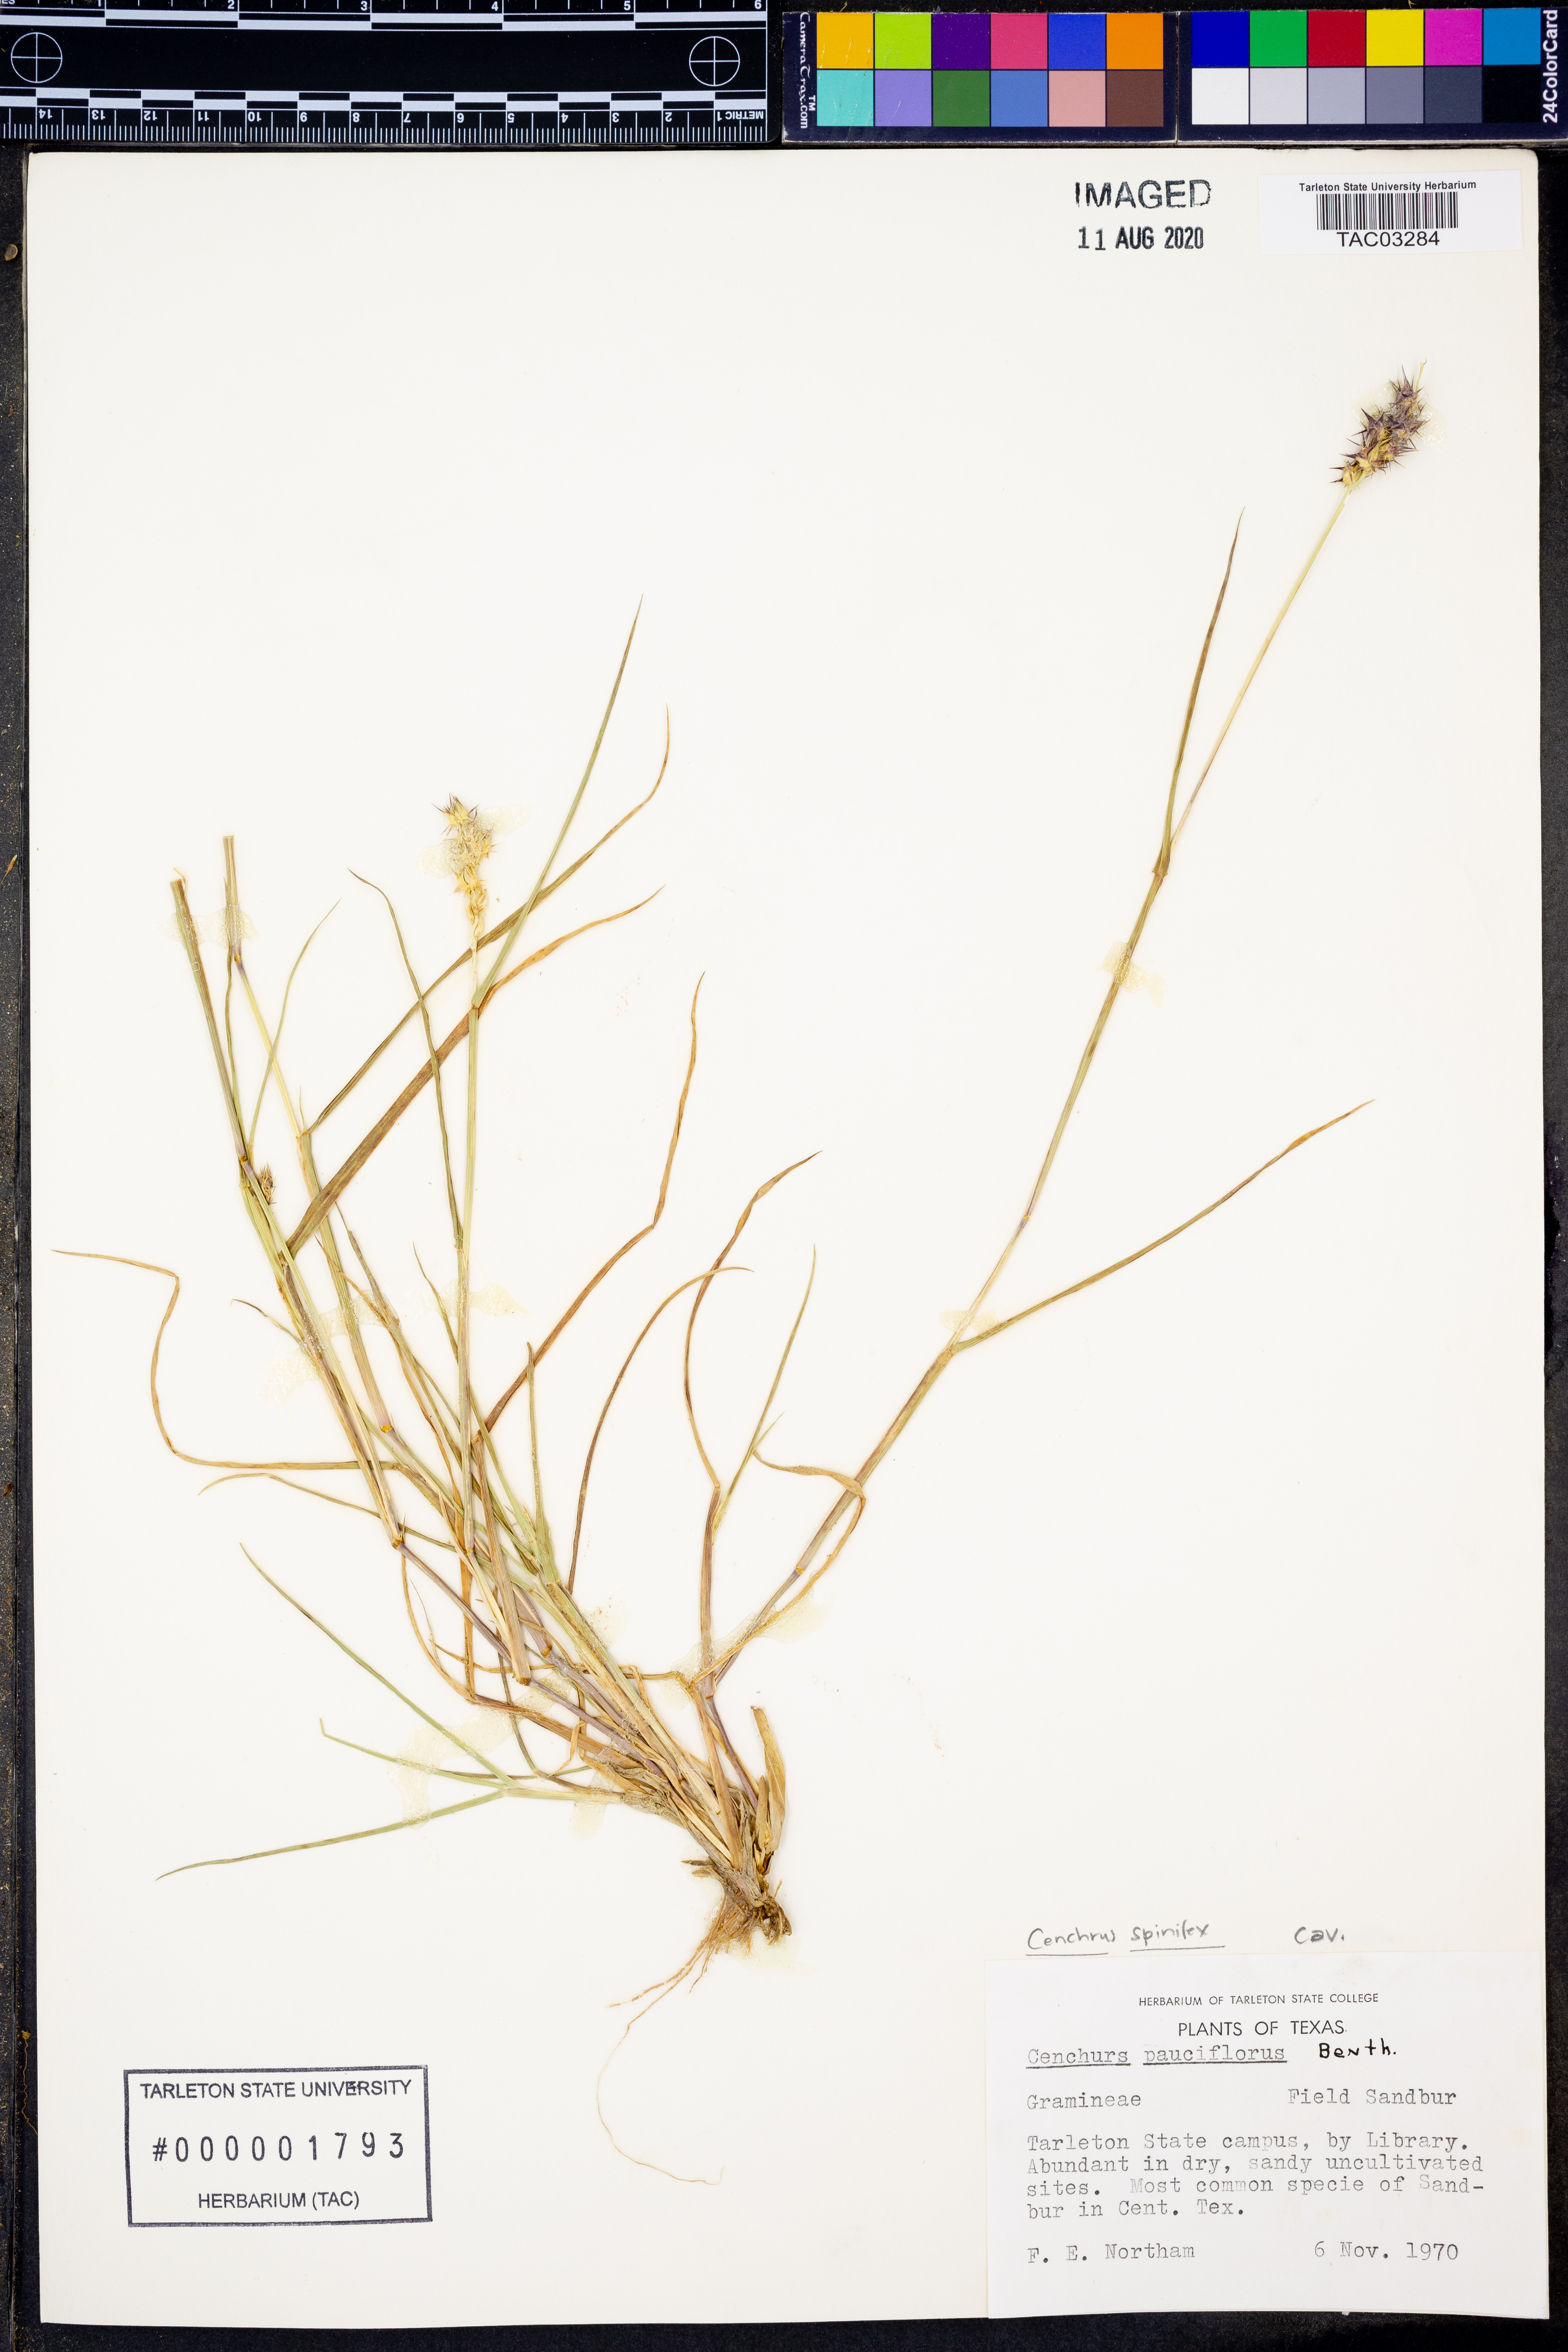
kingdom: Plantae
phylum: Tracheophyta
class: Liliopsida
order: Poales
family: Poaceae
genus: Cenchrus
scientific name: Cenchrus spinifex
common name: Coast sandbur
